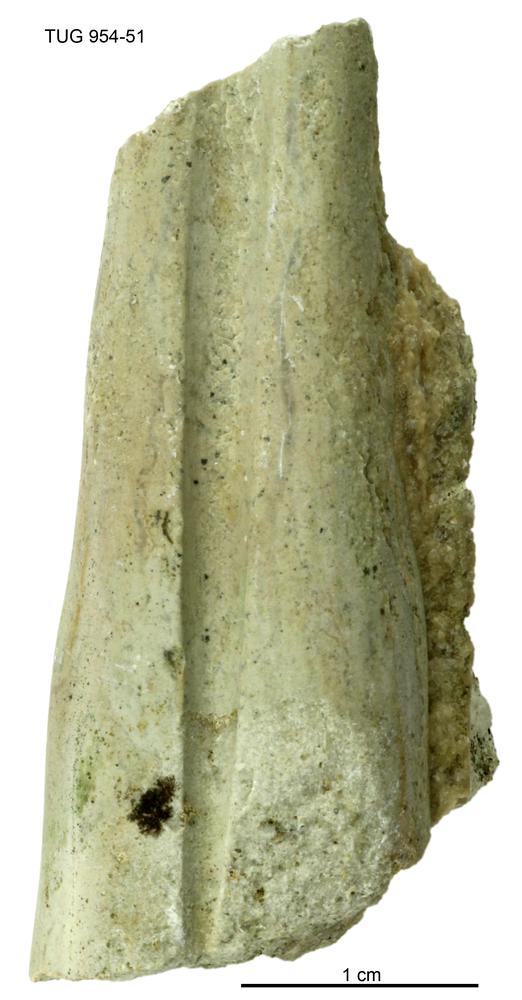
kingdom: Animalia
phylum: Mollusca
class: Cephalopoda
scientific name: Cephalopoda
